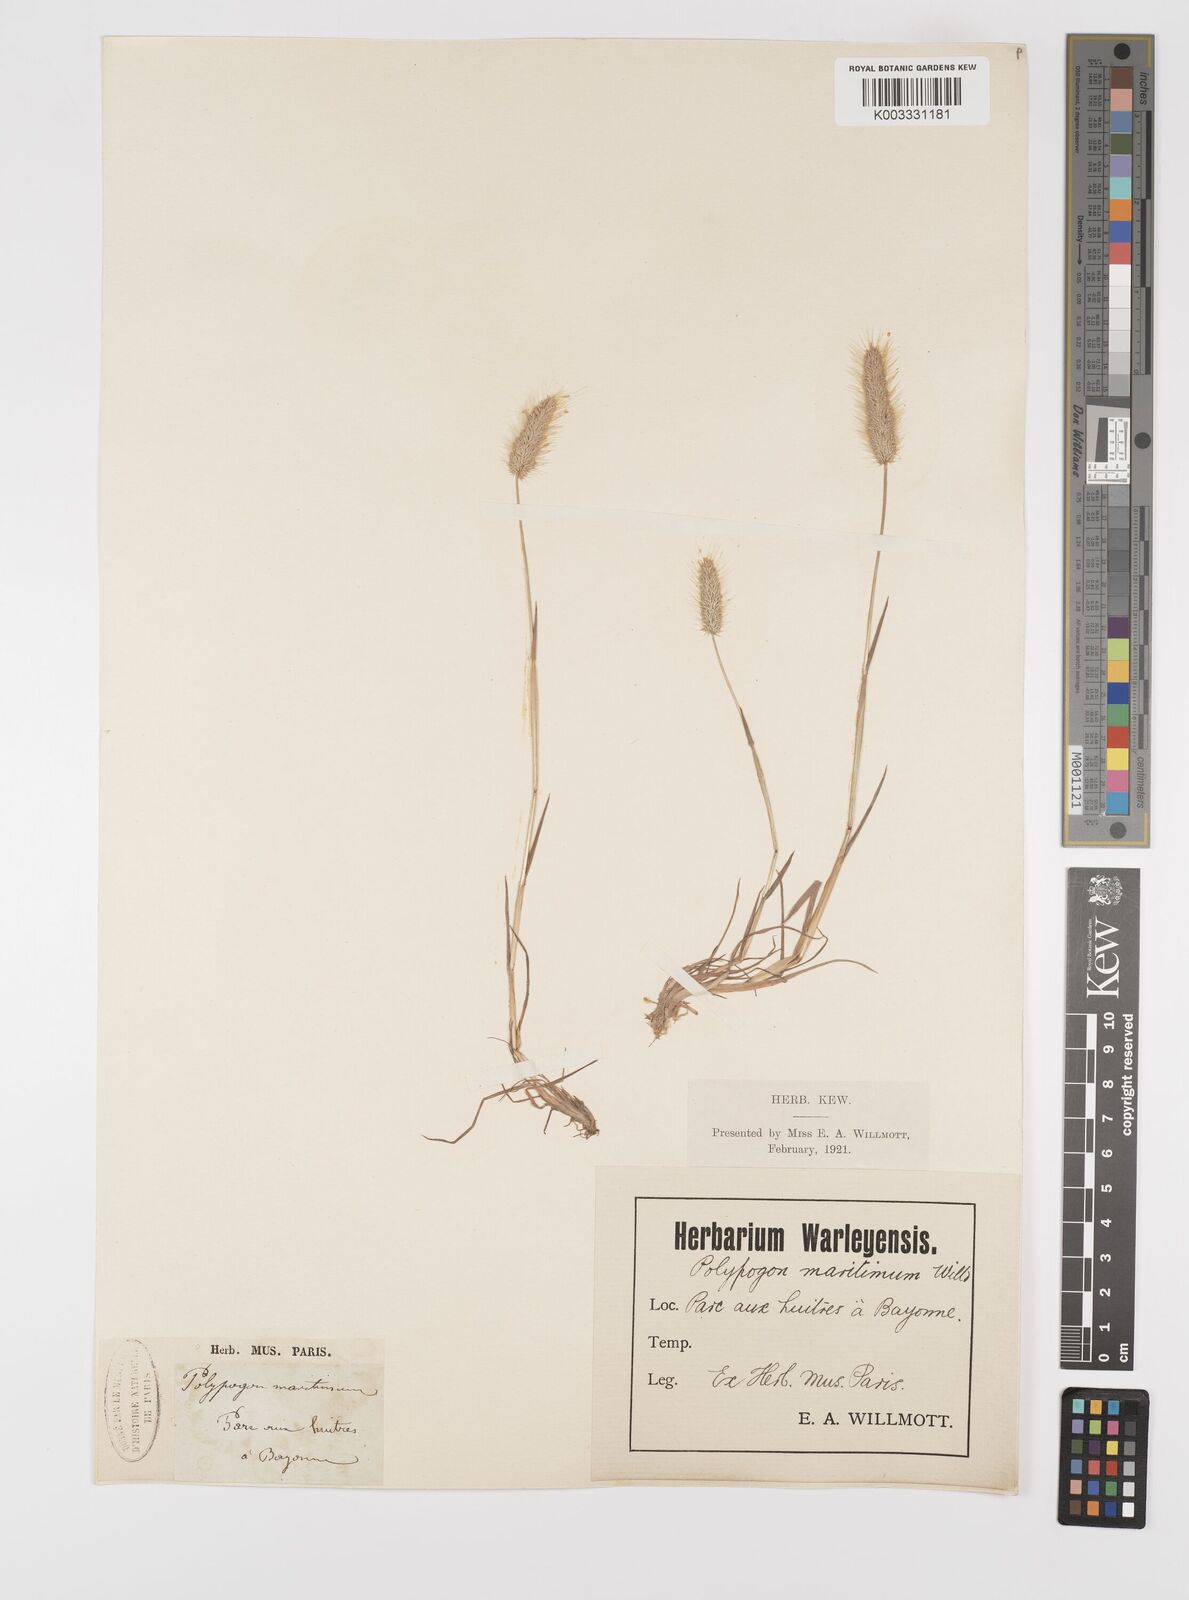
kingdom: Plantae
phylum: Tracheophyta
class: Liliopsida
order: Poales
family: Poaceae
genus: Polypogon
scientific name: Polypogon maritimus
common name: Mediterranean rabbitsfoot grass
